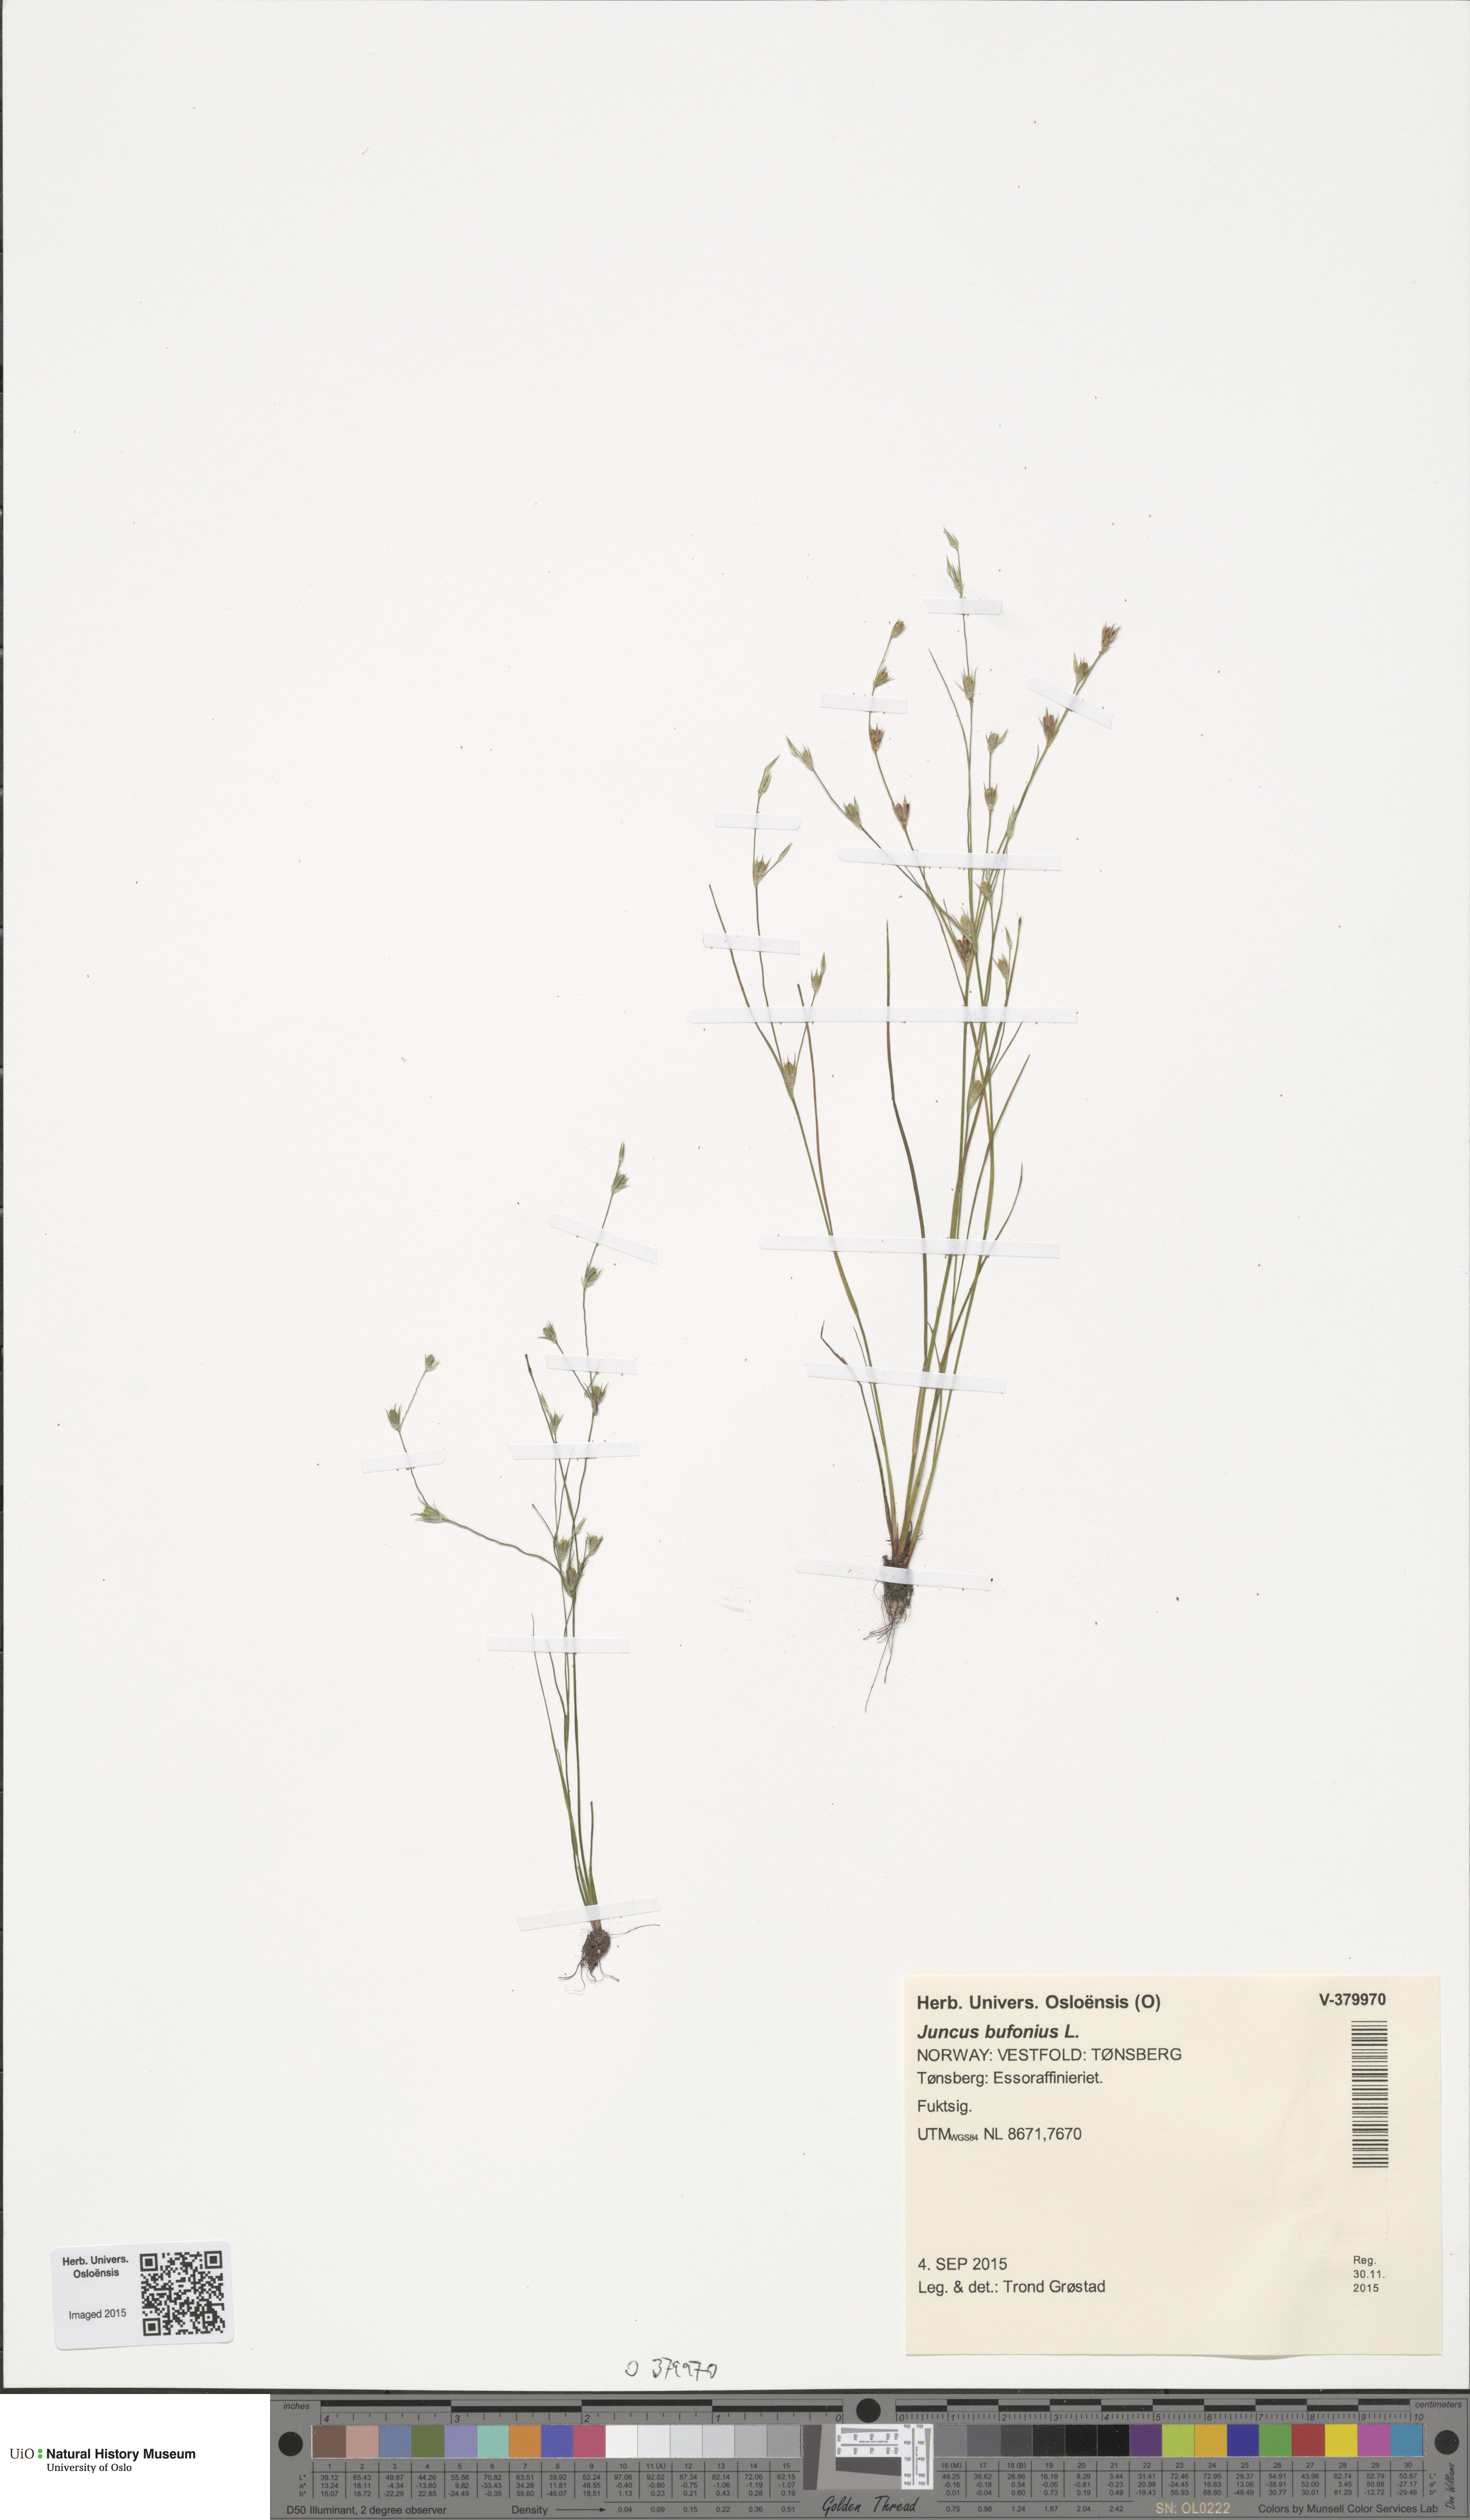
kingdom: Plantae
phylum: Tracheophyta
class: Liliopsida
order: Poales
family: Juncaceae
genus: Juncus
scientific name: Juncus bufonius
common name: Toad rush
